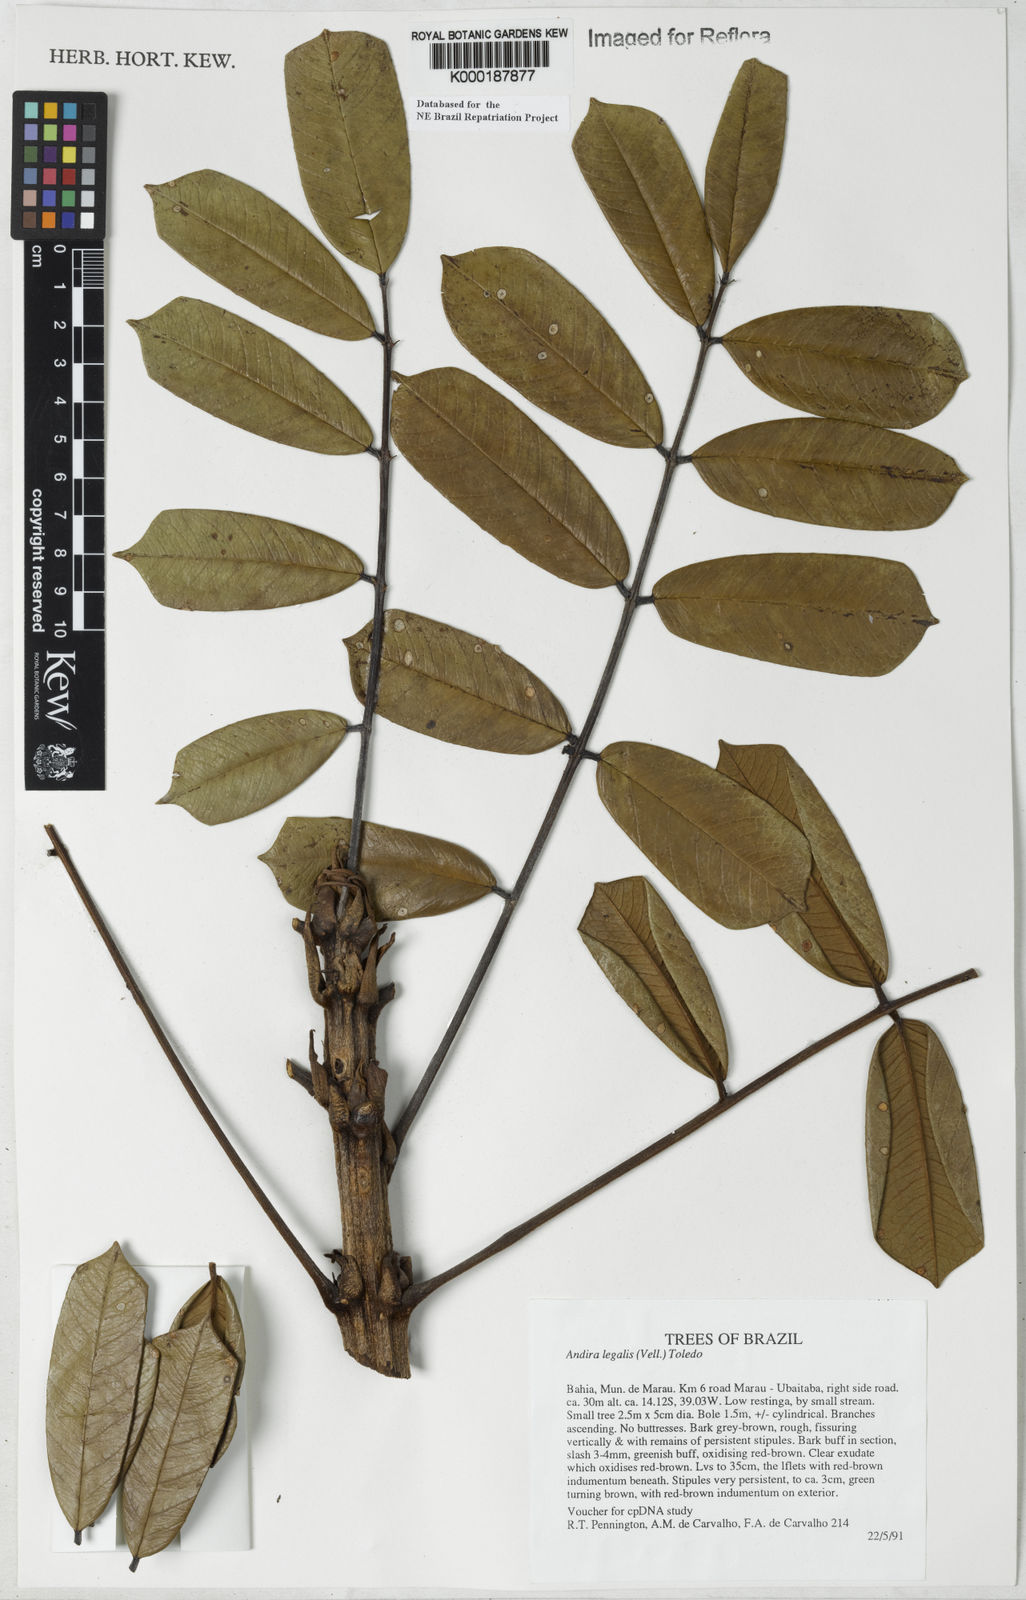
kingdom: Plantae
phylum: Tracheophyta
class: Magnoliopsida
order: Fabales
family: Fabaceae
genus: Andira
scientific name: Andira legalis
